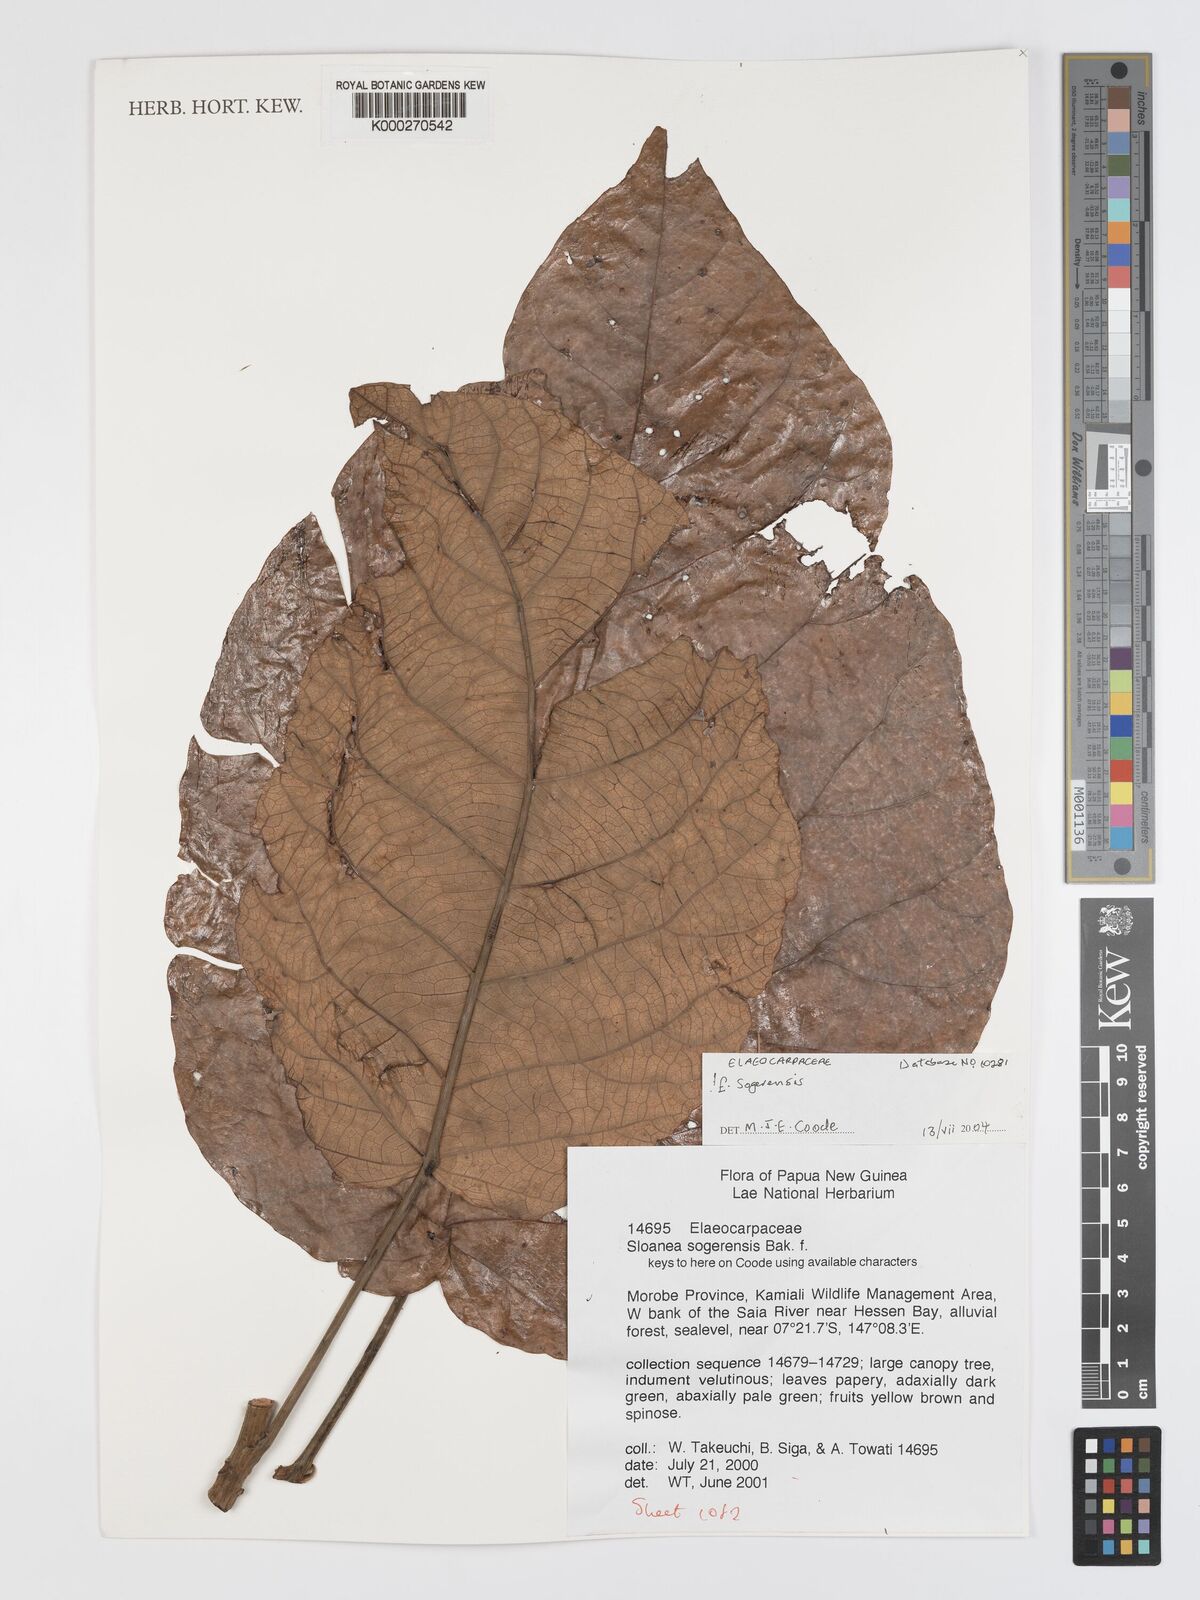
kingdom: Plantae
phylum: Tracheophyta
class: Magnoliopsida
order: Oxalidales
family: Elaeocarpaceae
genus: Elaeocarpus
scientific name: Elaeocarpus culminicola
